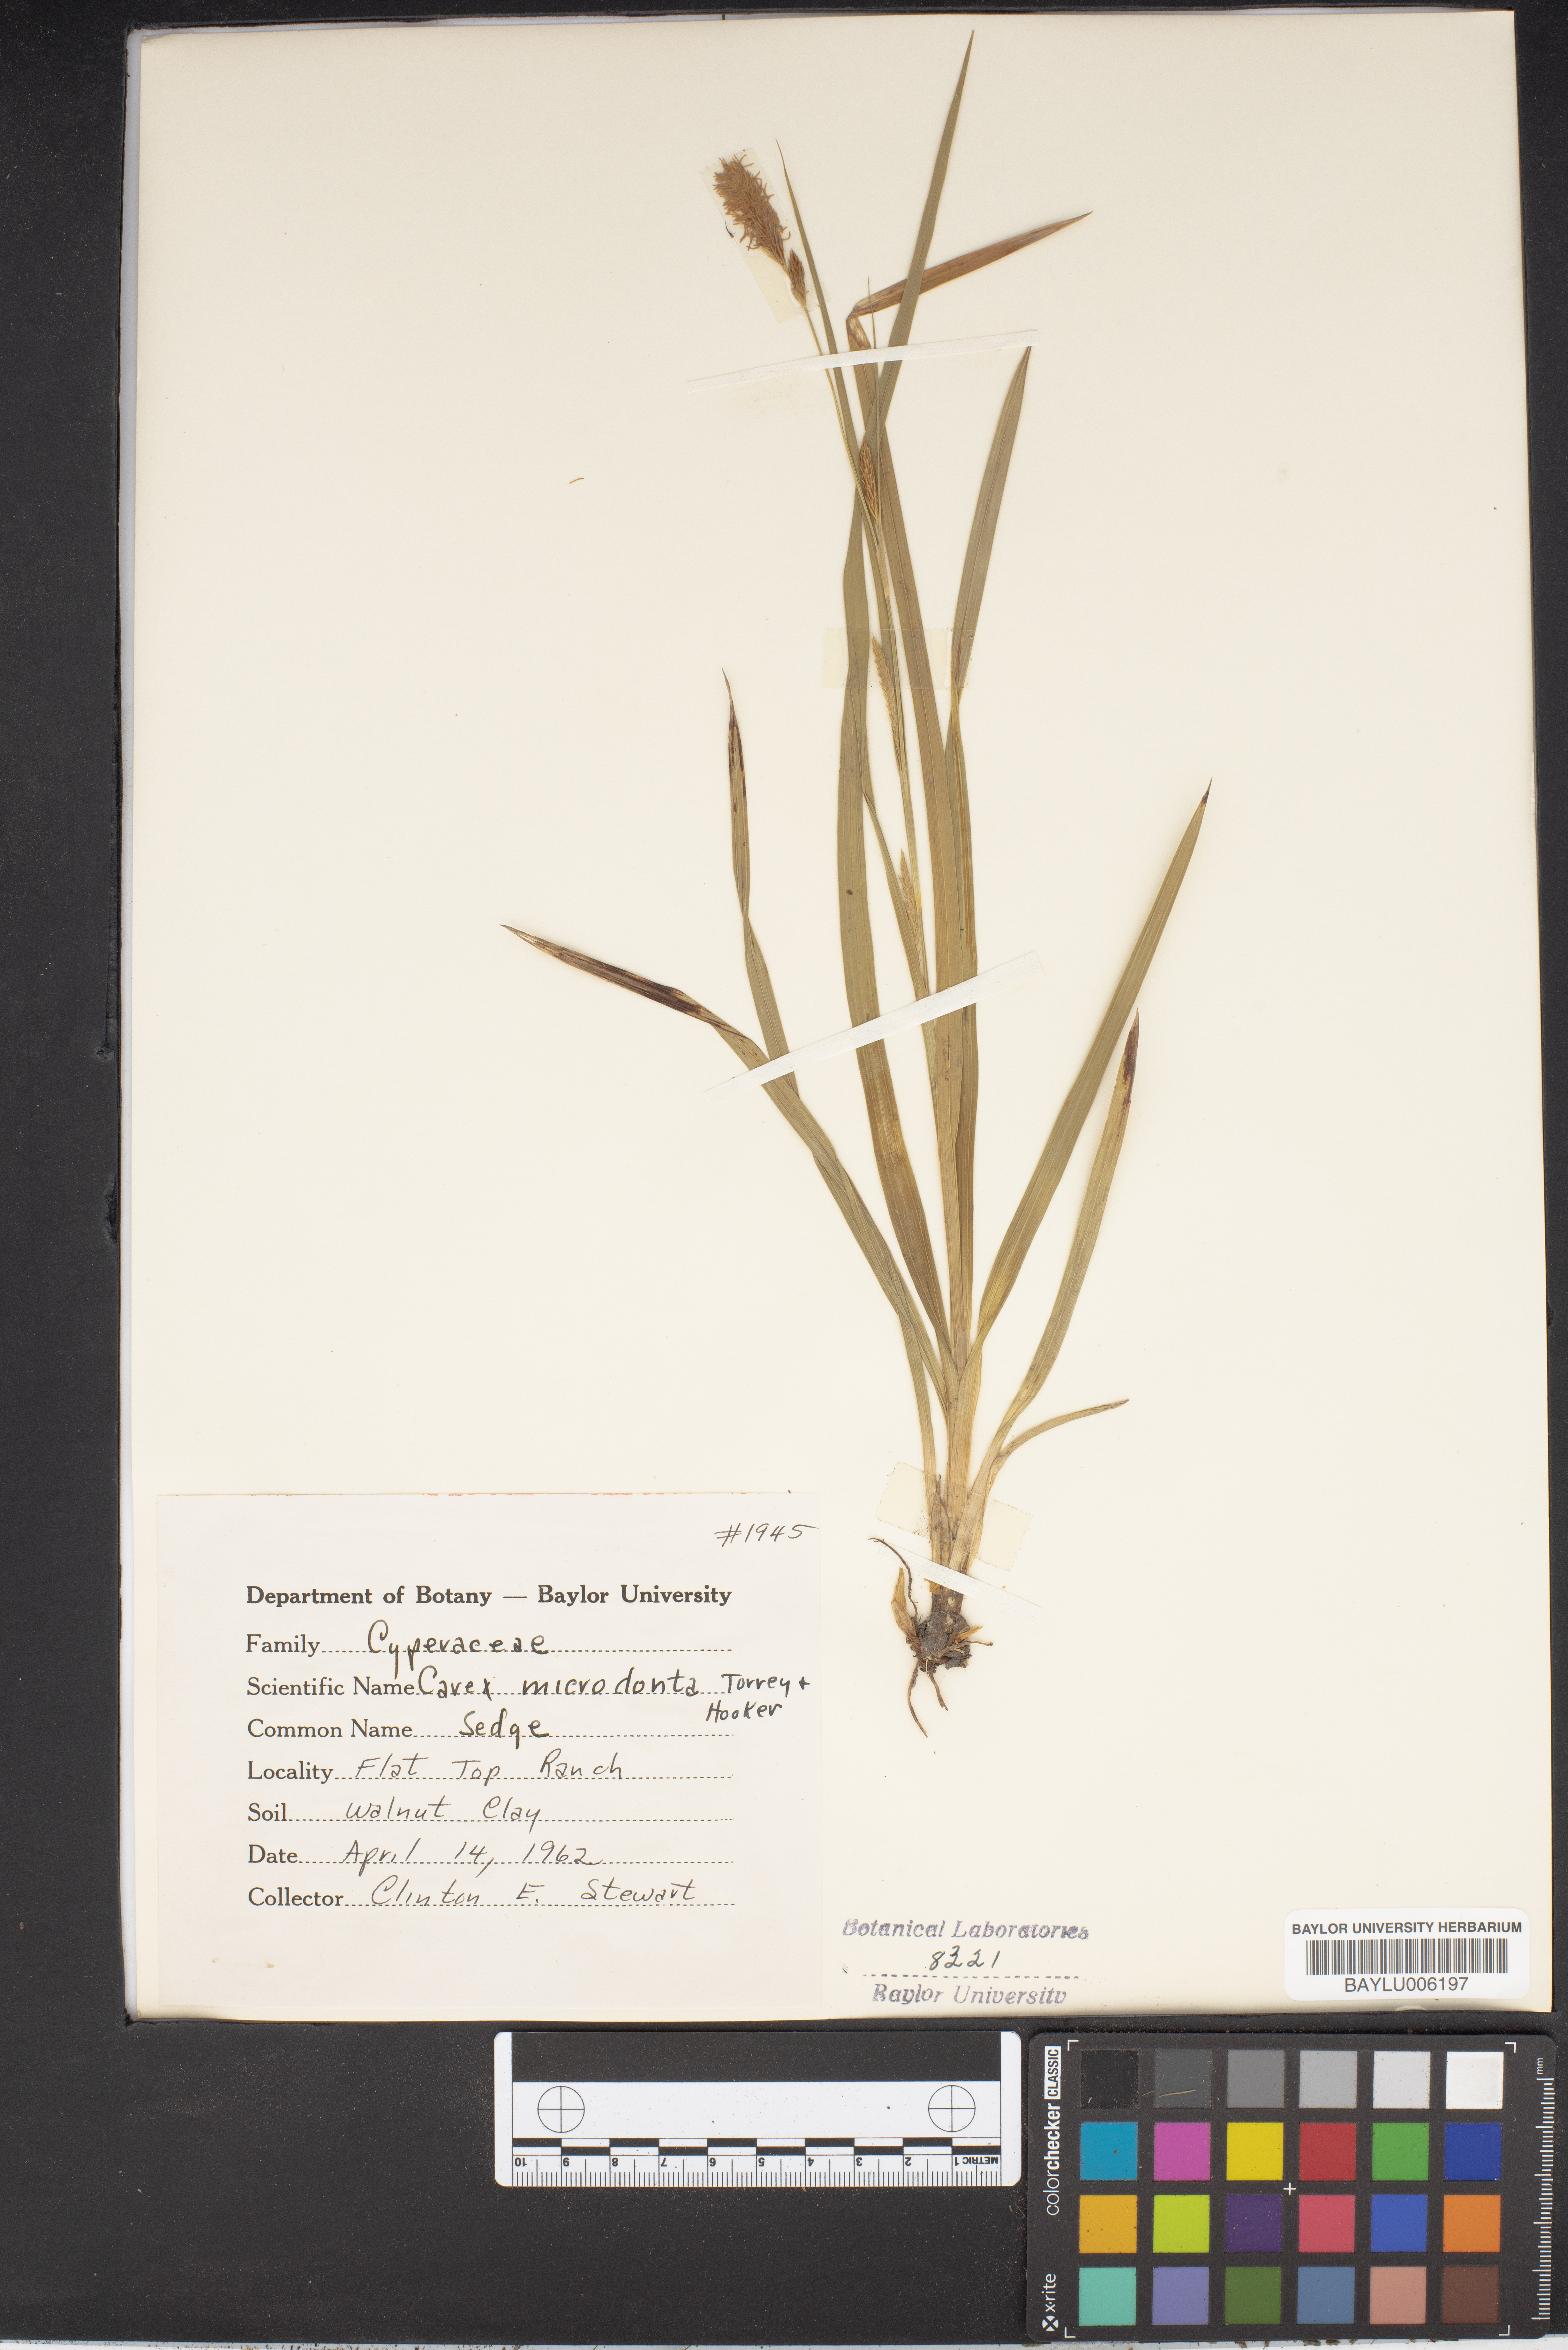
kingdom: Plantae
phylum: Tracheophyta
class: Liliopsida
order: Poales
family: Cyperaceae
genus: Carex
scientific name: Carex microdonta
